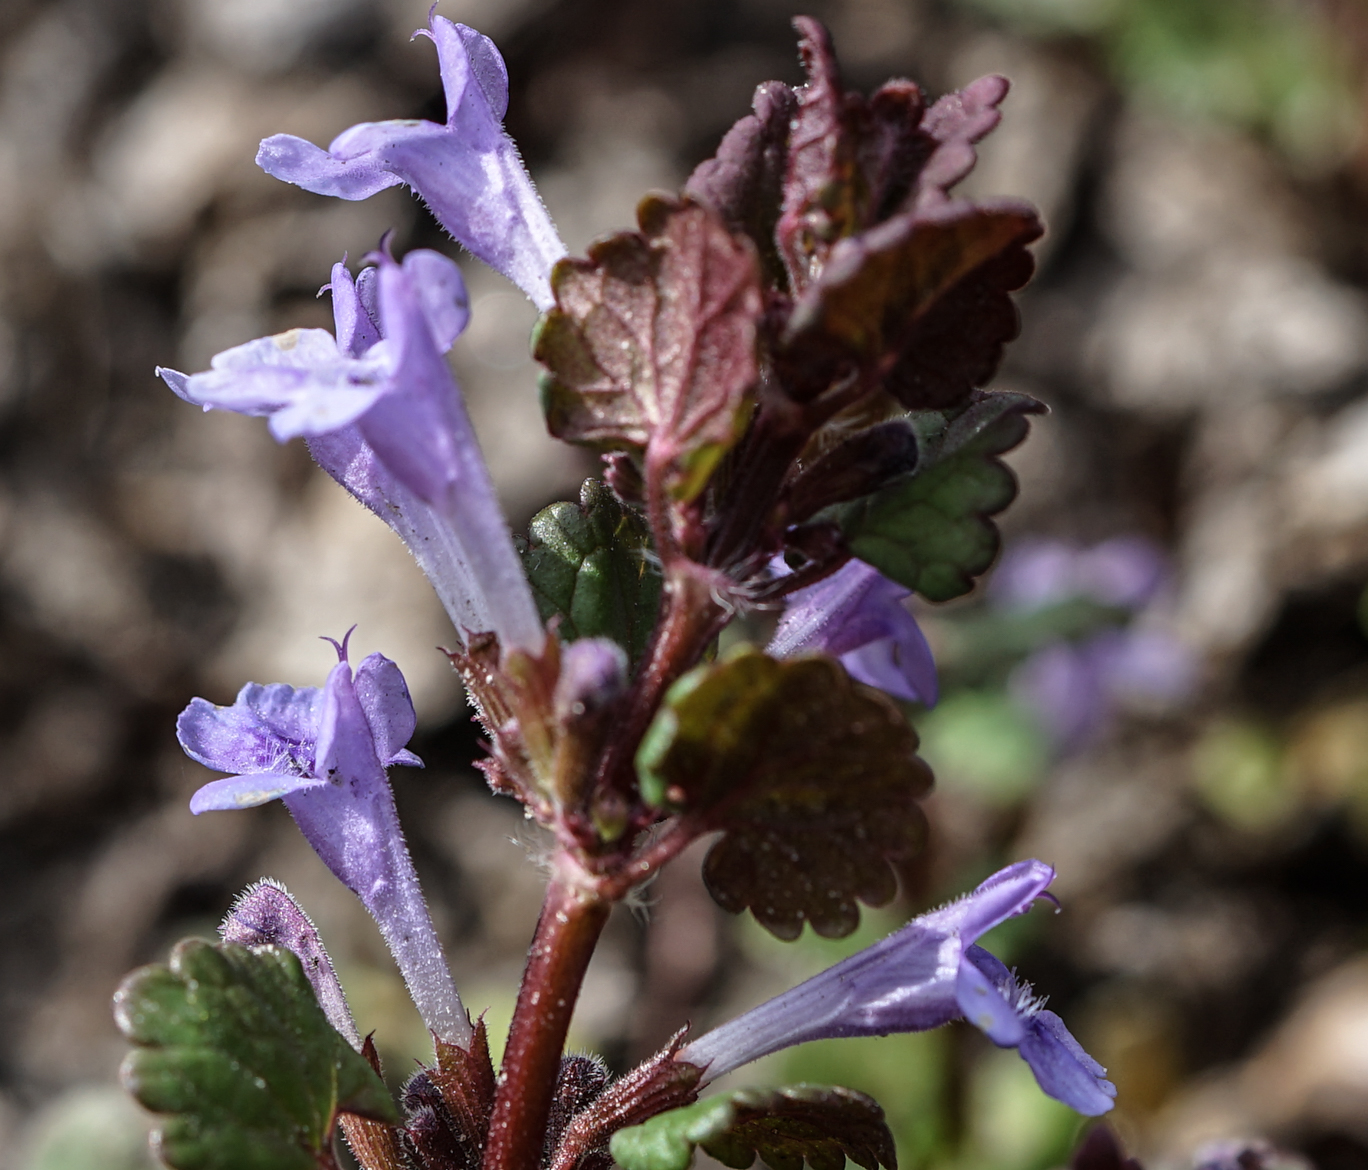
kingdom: Plantae
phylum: Tracheophyta
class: Magnoliopsida
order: Lamiales
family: Lamiaceae
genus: Glechoma
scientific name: Glechoma hederacea
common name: Ground ivy
